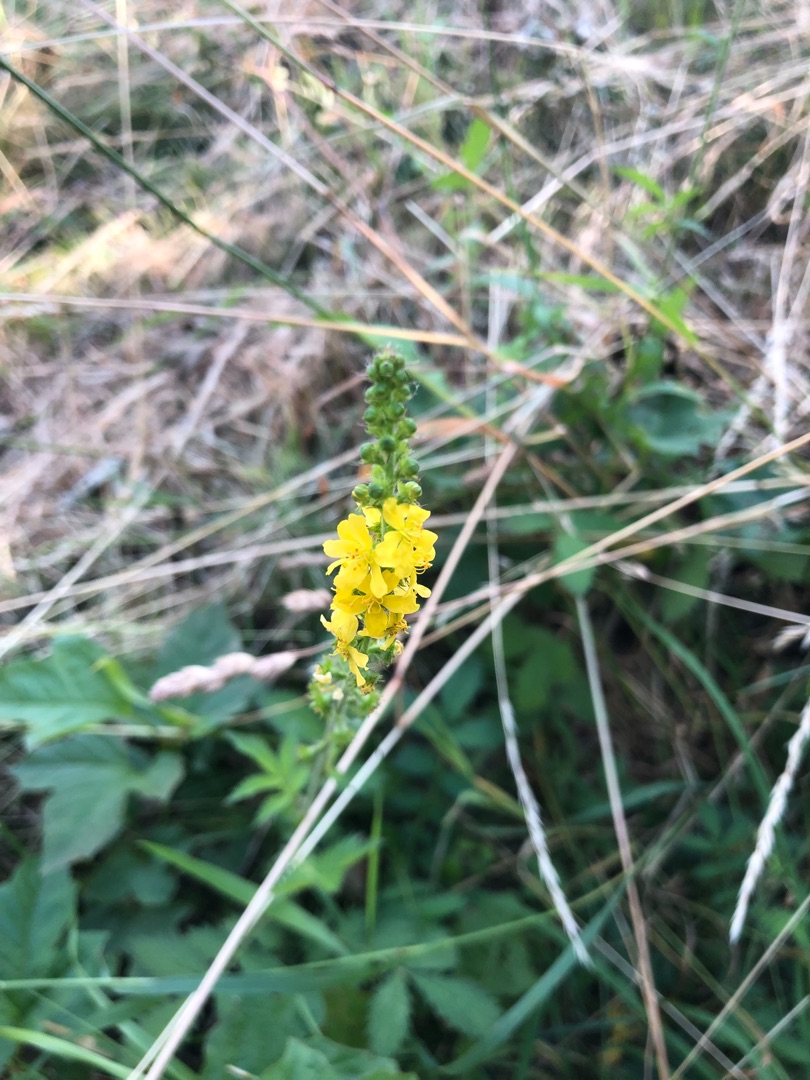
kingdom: Plantae
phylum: Tracheophyta
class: Magnoliopsida
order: Rosales
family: Rosaceae
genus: Agrimonia
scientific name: Agrimonia procera
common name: Vellugtende agermåne
